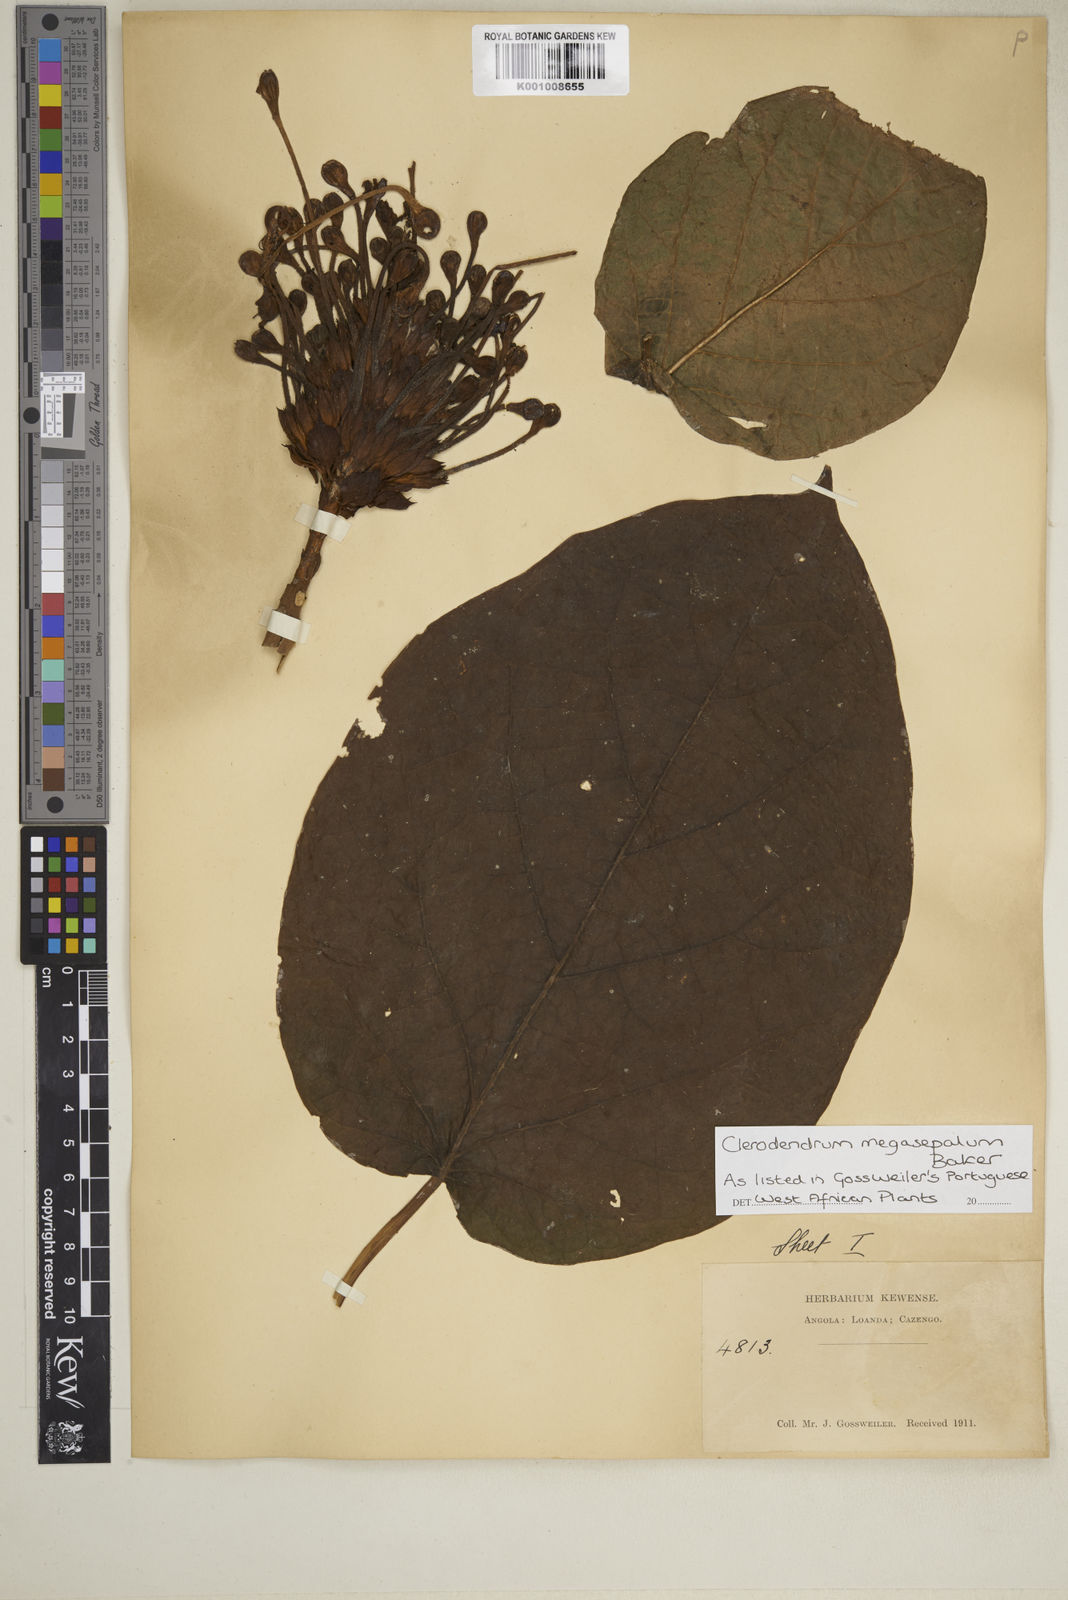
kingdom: Plantae
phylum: Tracheophyta
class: Magnoliopsida
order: Lamiales
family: Lamiaceae
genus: Clerodendrum
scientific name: Clerodendrum poggei
